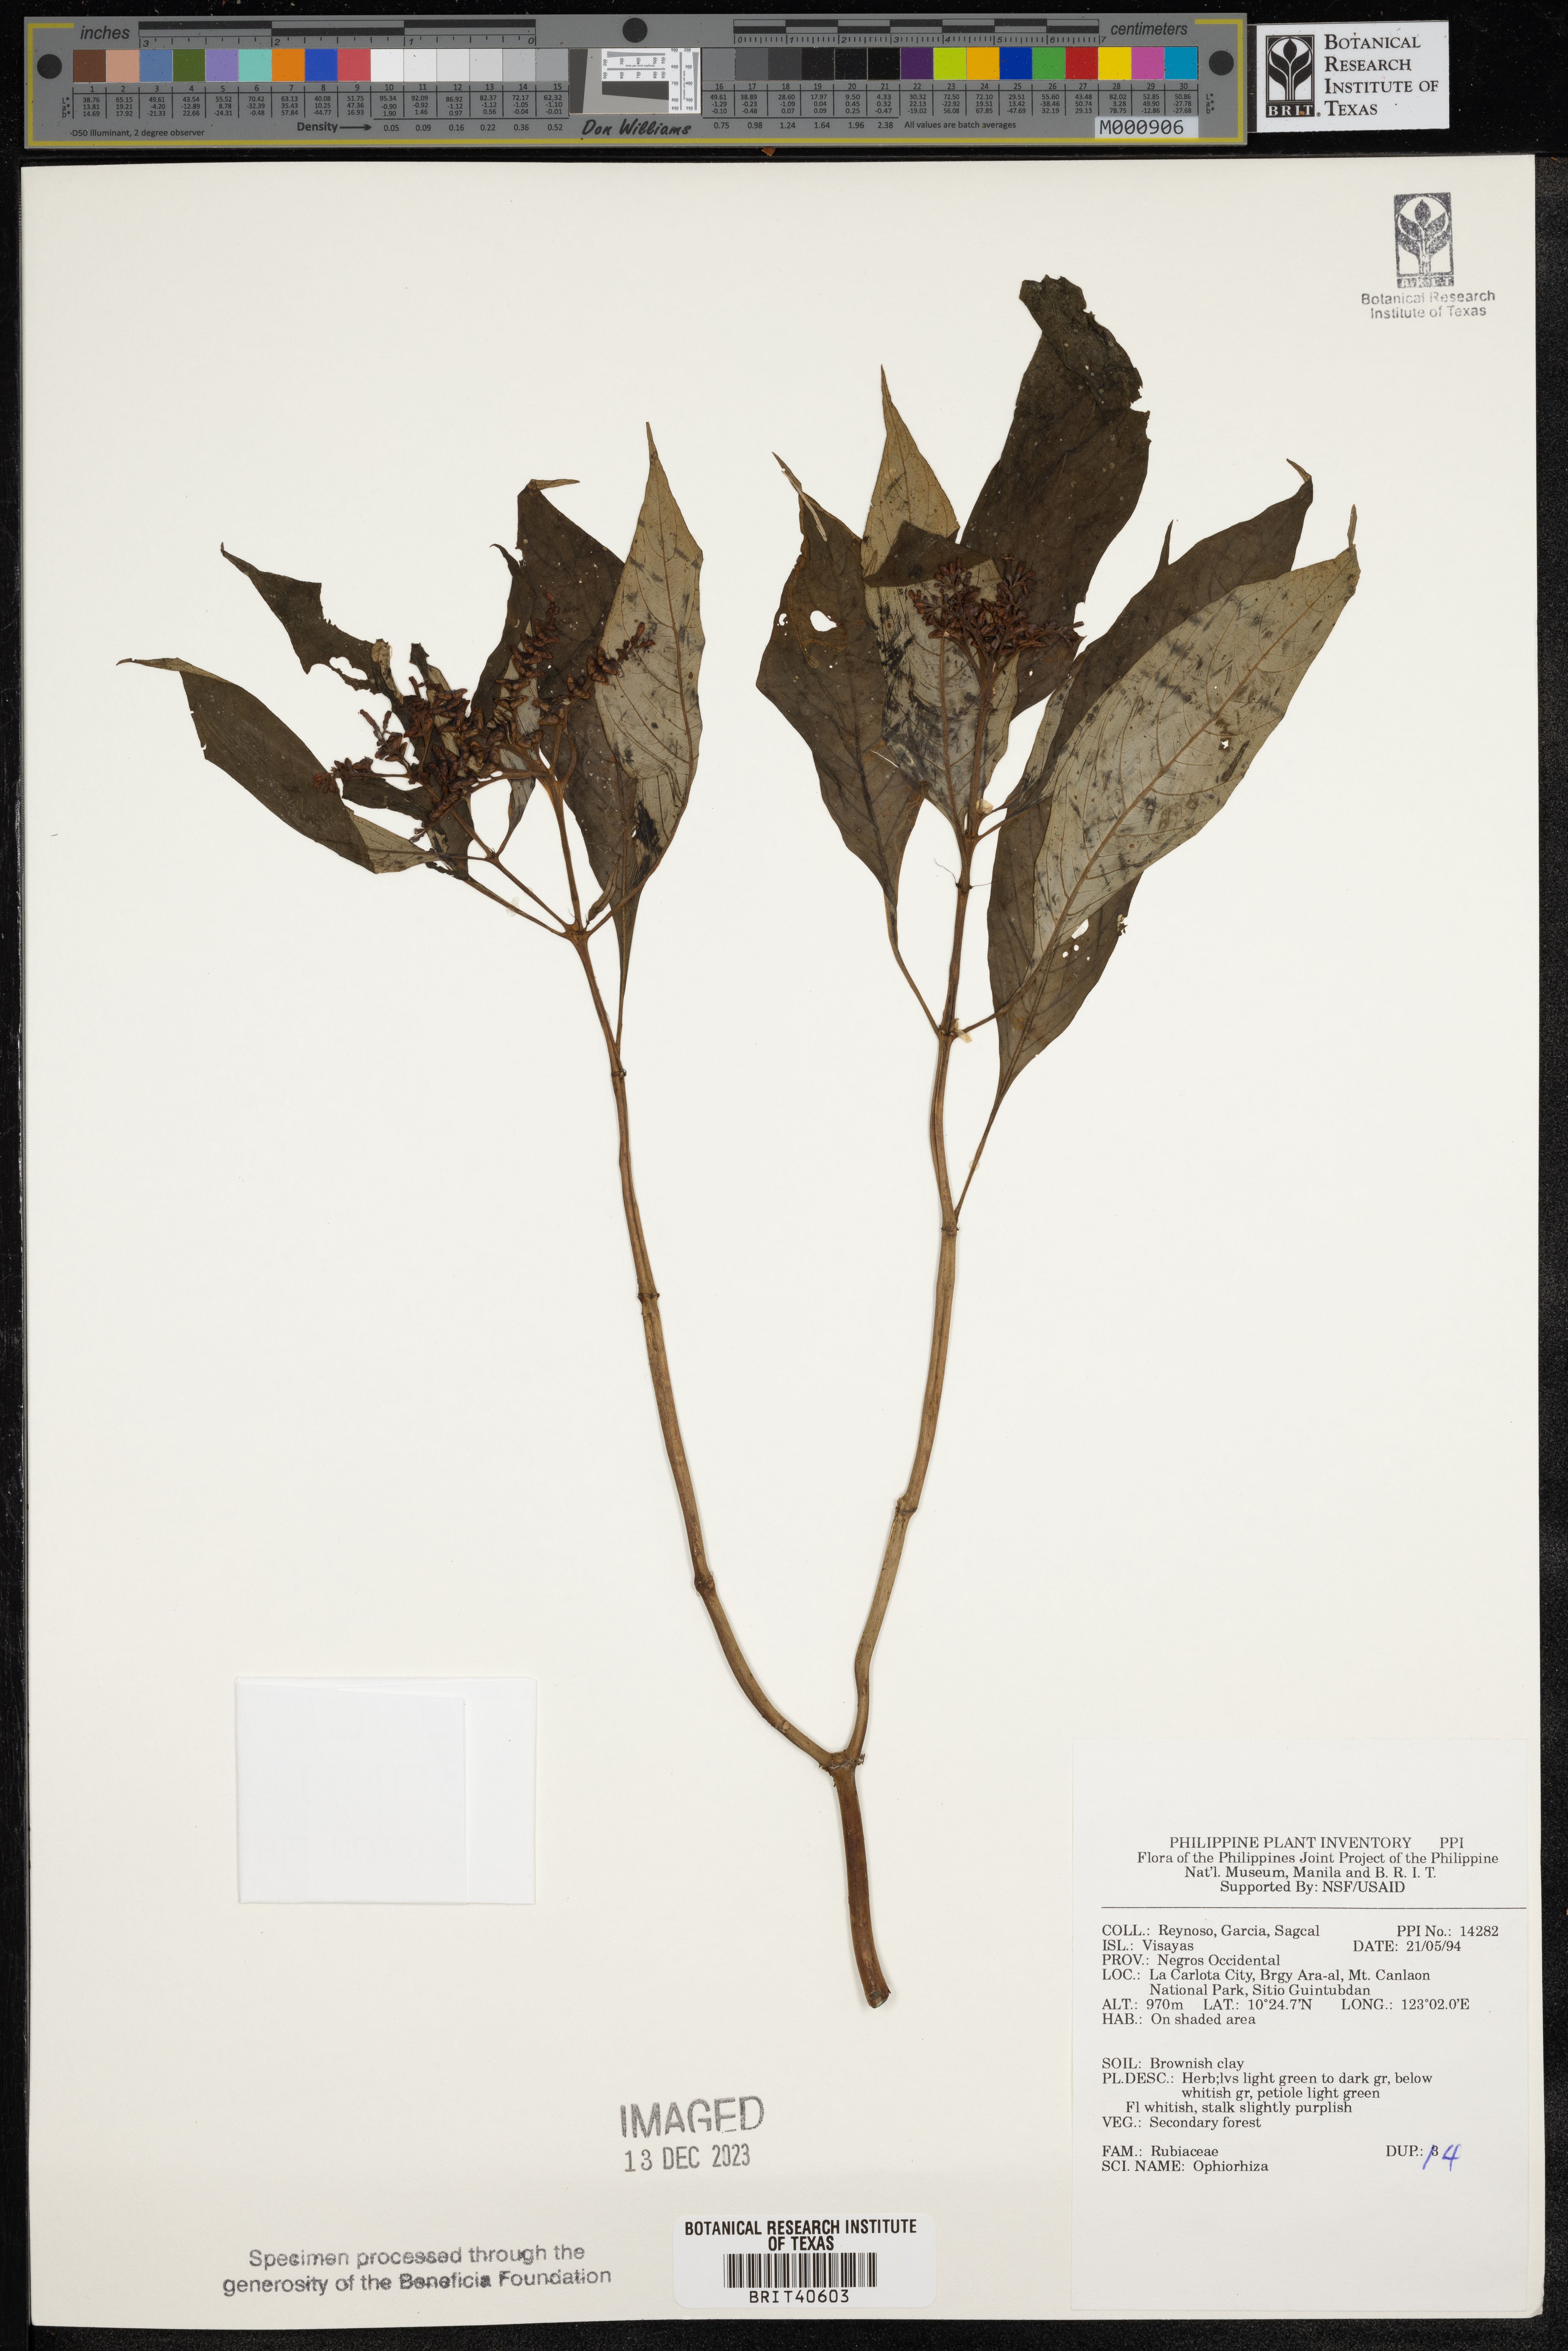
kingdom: Plantae
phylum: Tracheophyta
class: Magnoliopsida
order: Gentianales
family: Rubiaceae
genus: Ophiorrhiza
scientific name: Ophiorrhiza
